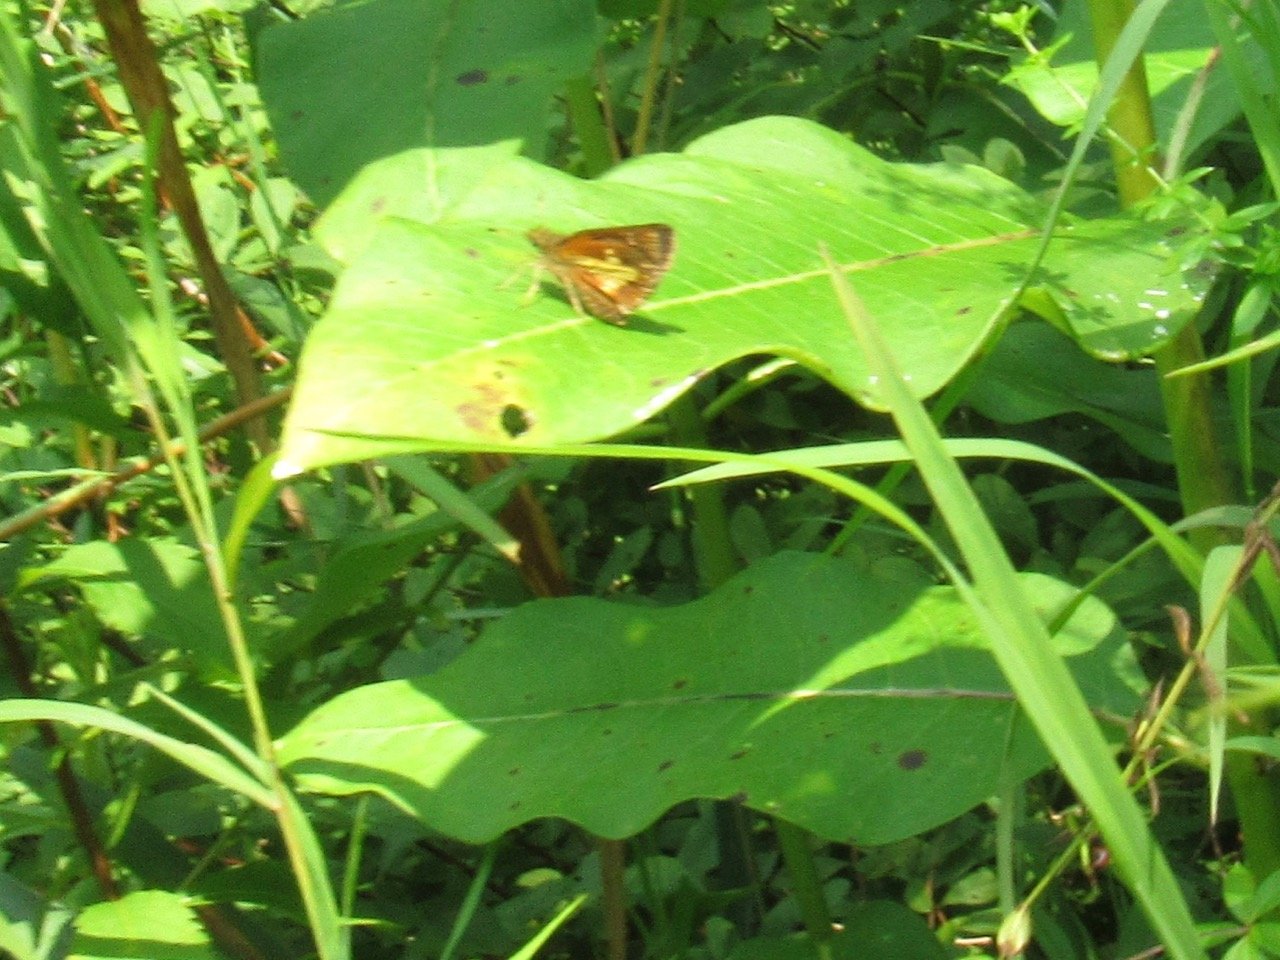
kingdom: Animalia
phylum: Arthropoda
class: Insecta
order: Lepidoptera
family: Hesperiidae
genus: Poanes
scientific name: Poanes massasoit
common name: Mulberry Wing
